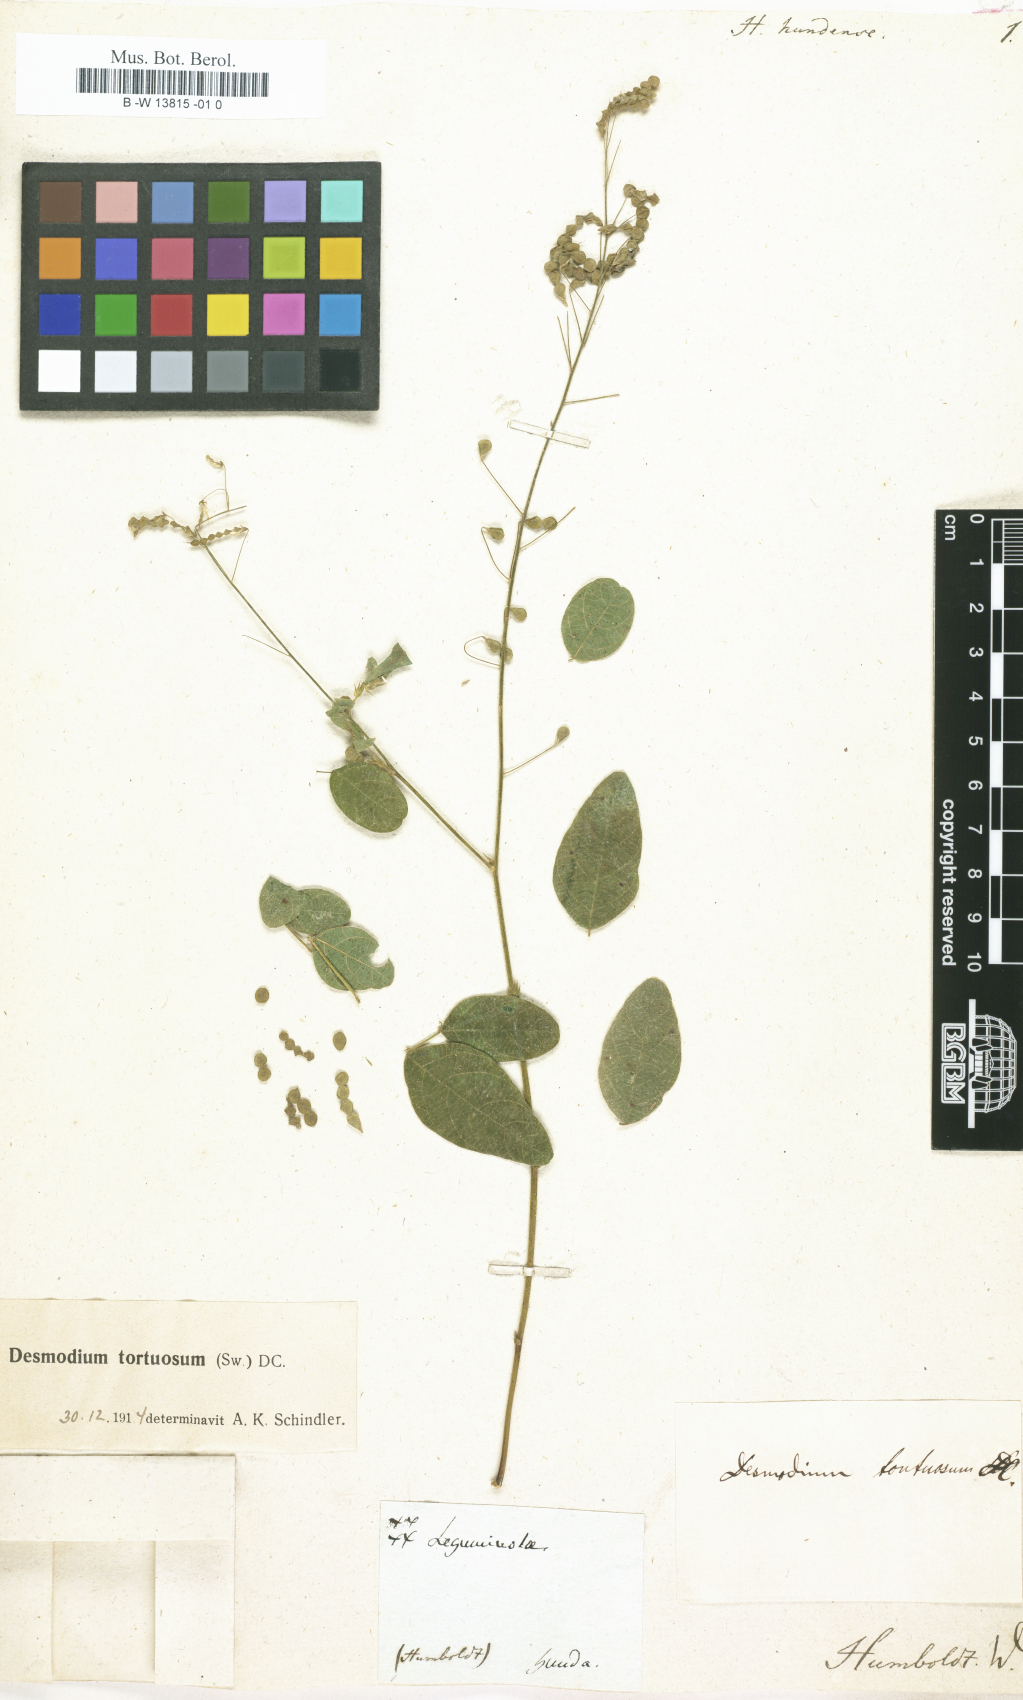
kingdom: Plantae
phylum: Tracheophyta
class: Magnoliopsida
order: Fabales
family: Fabaceae
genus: Hedysarum
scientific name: Hedysarum
